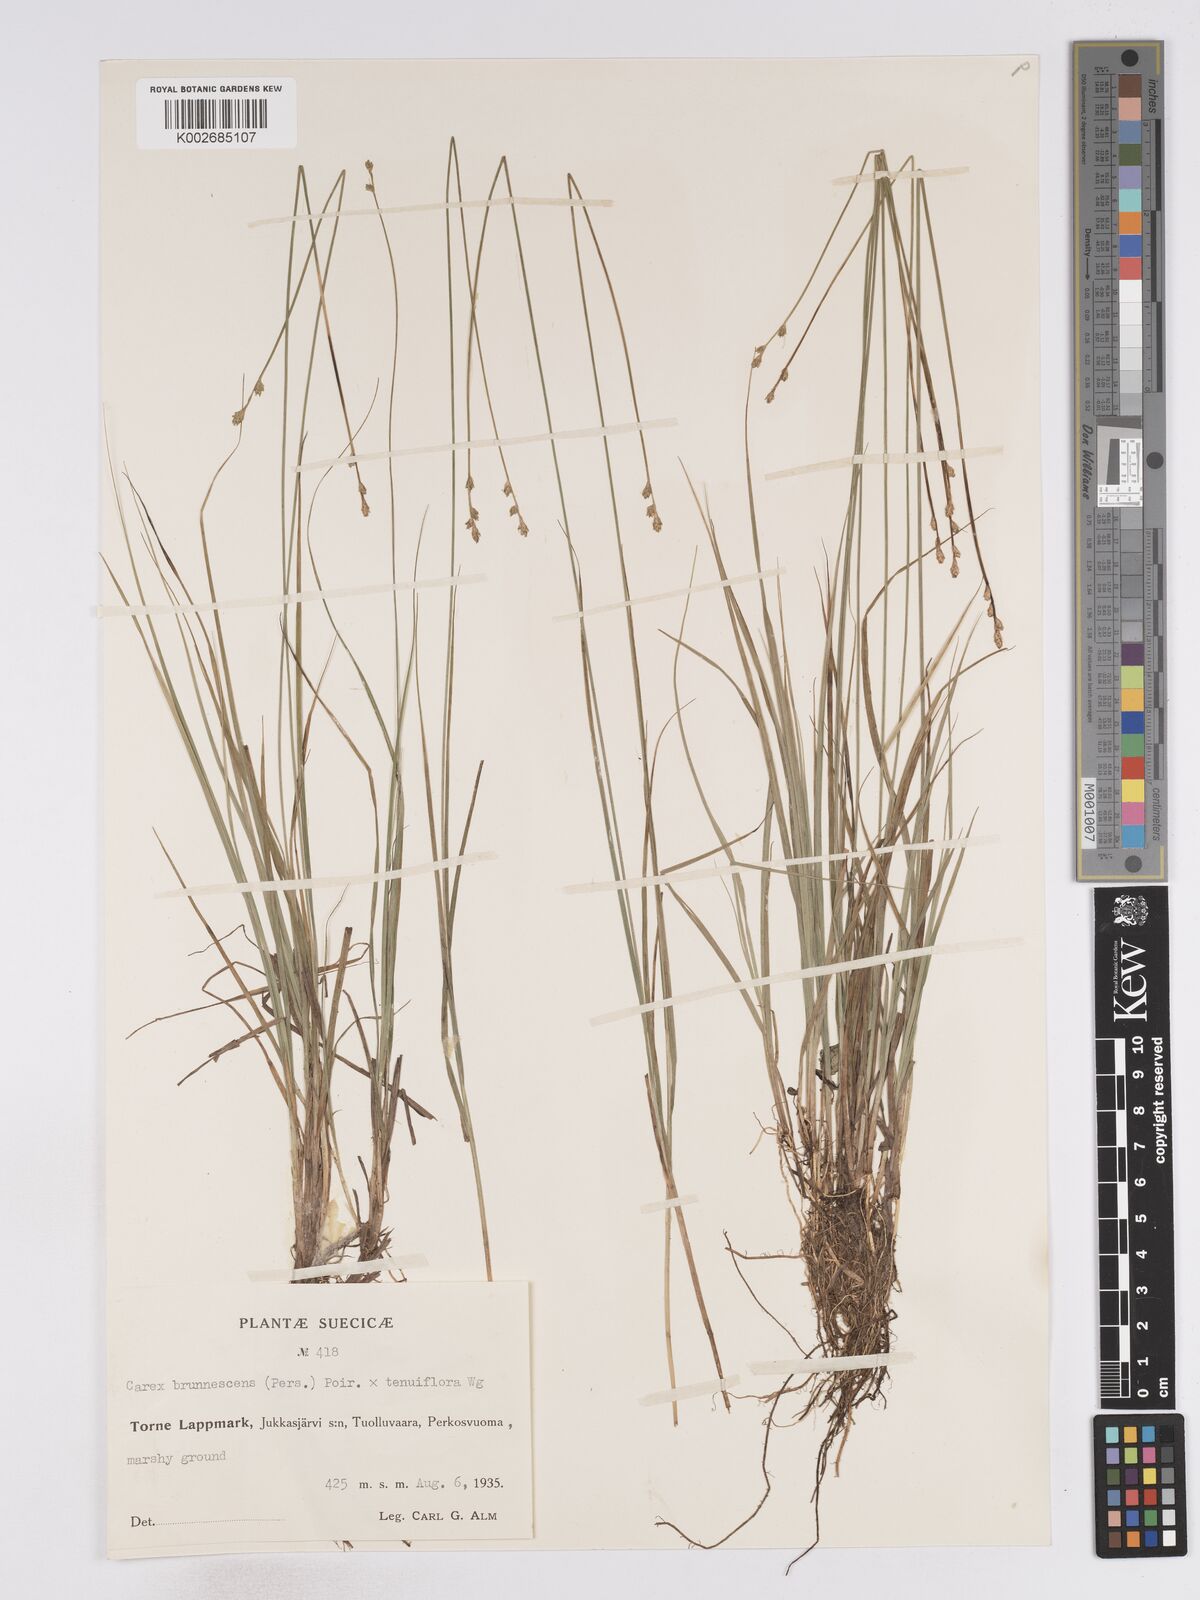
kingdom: Plantae
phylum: Tracheophyta
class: Liliopsida
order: Poales
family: Cyperaceae
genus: Carex
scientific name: Carex brunnescens
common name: Brown sedge
